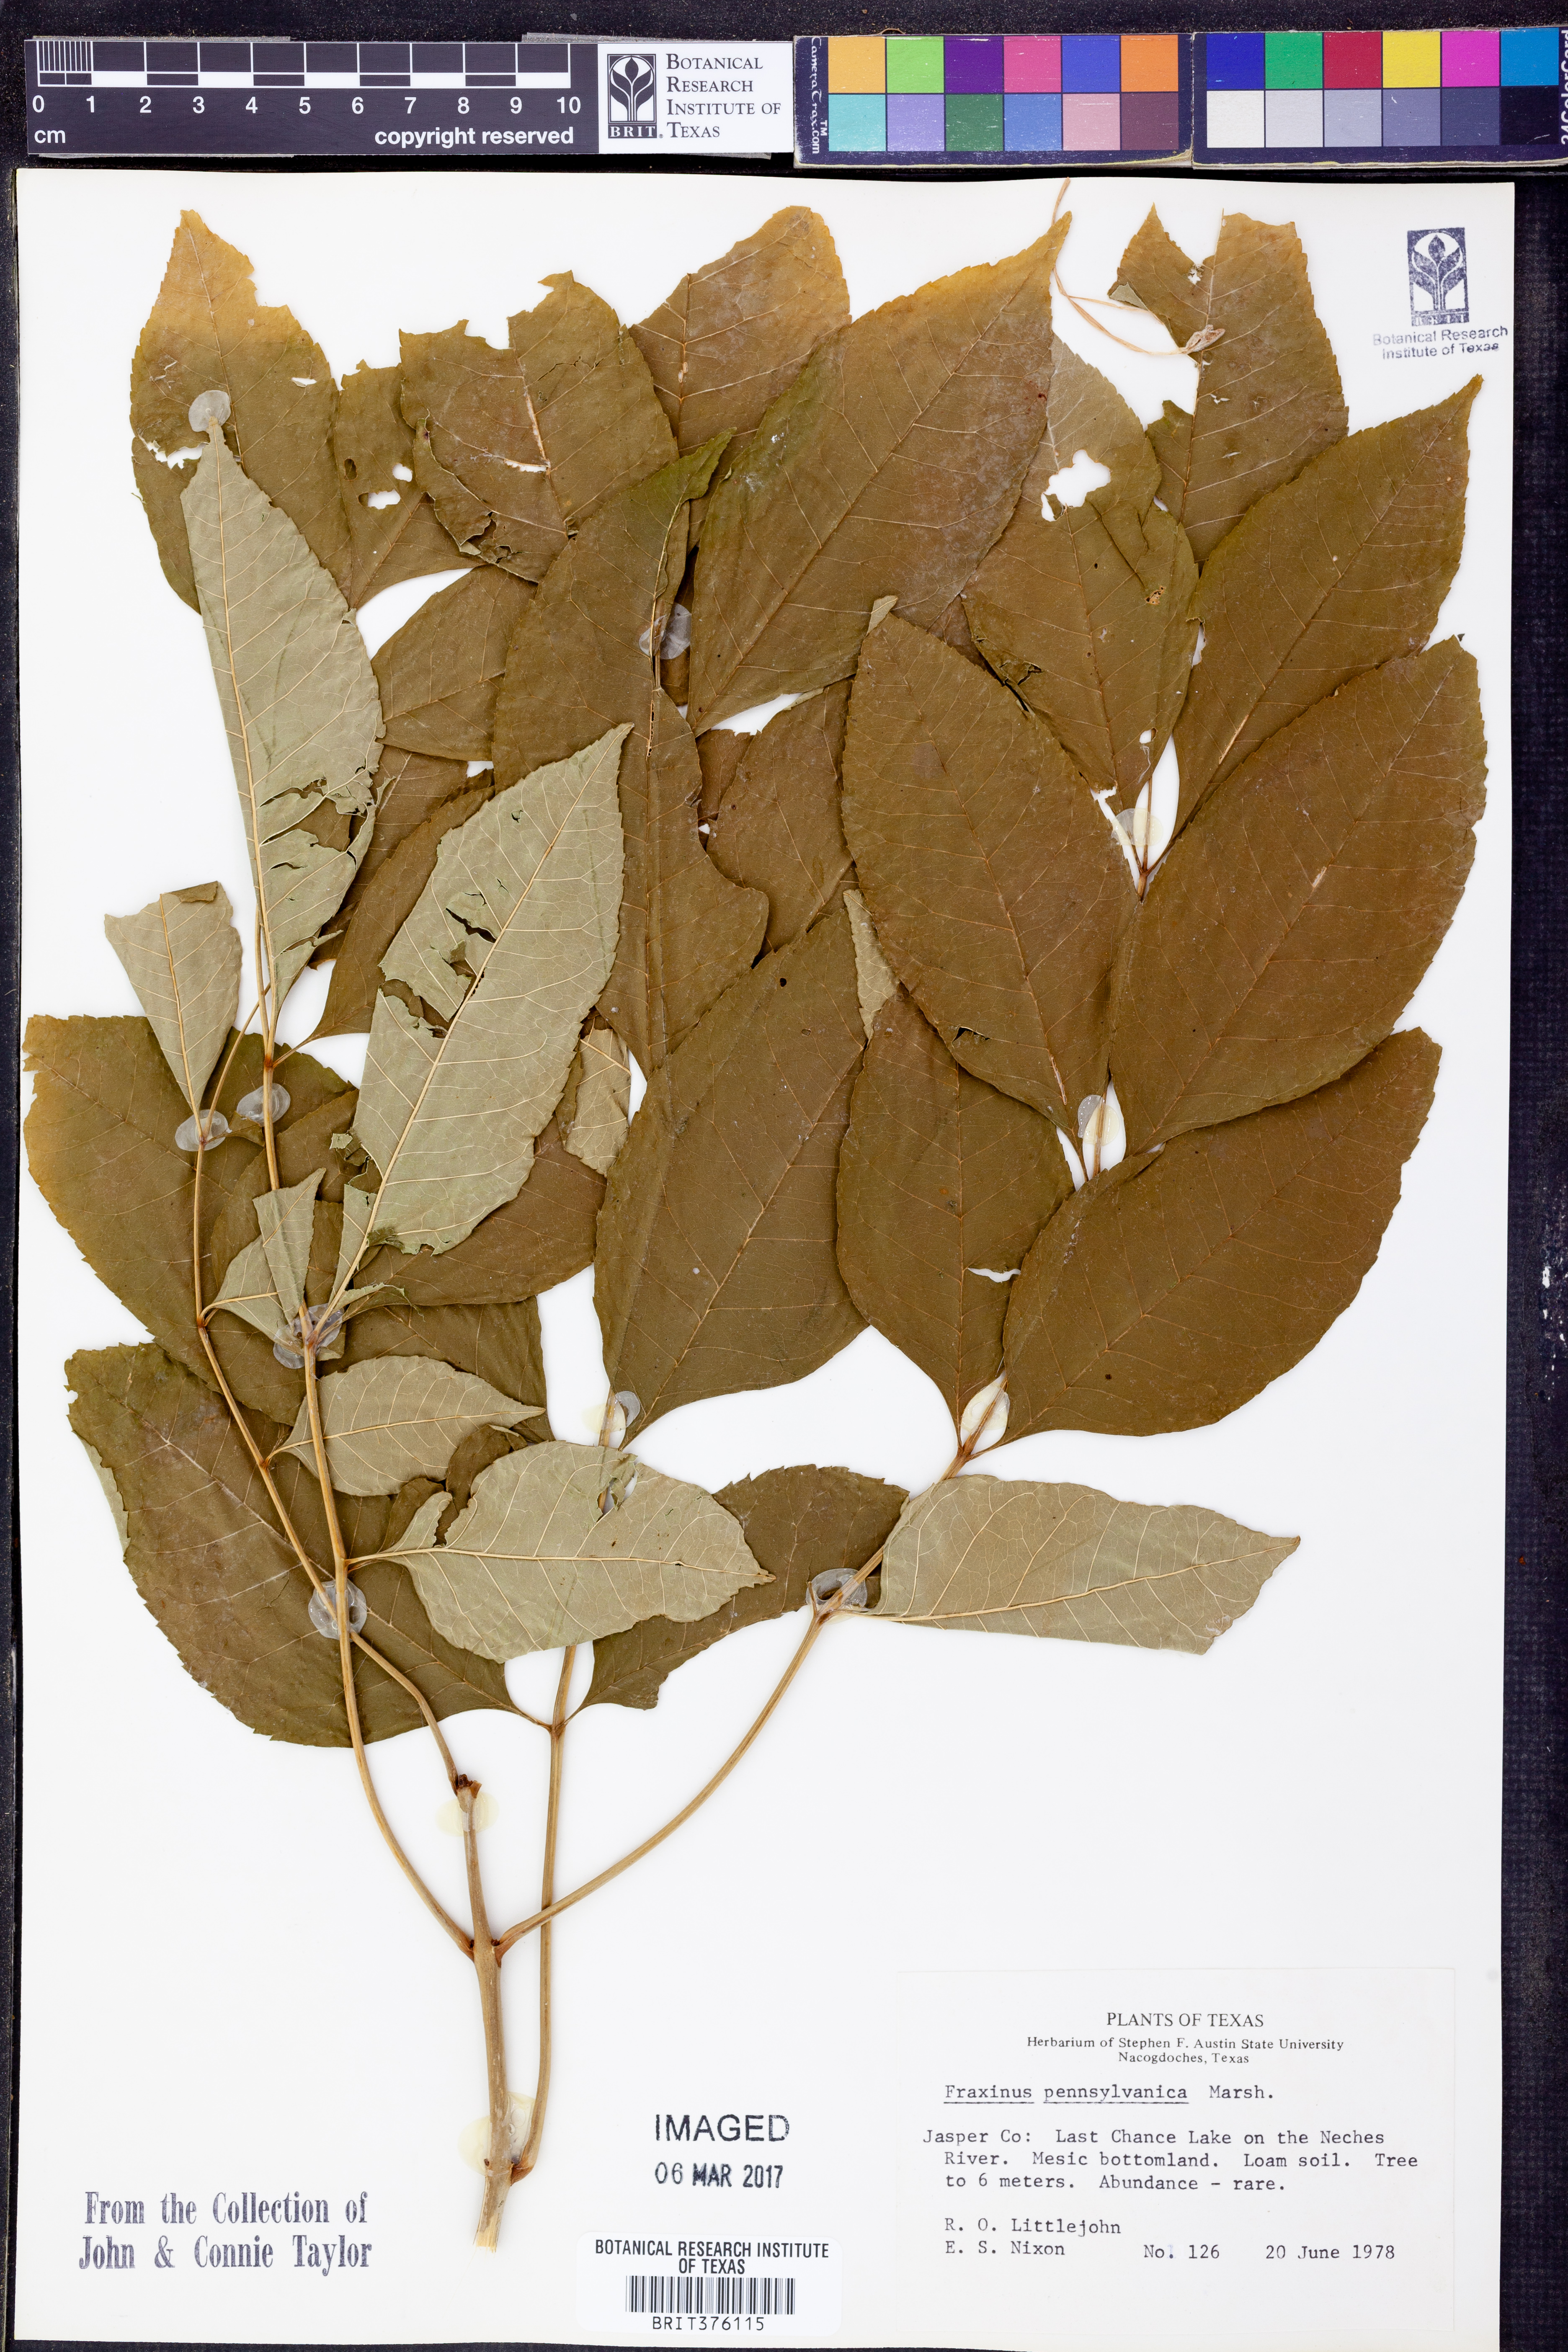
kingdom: Plantae
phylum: Tracheophyta
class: Magnoliopsida
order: Lamiales
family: Oleaceae
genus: Fraxinus
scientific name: Fraxinus pennsylvanica
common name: Green ash
